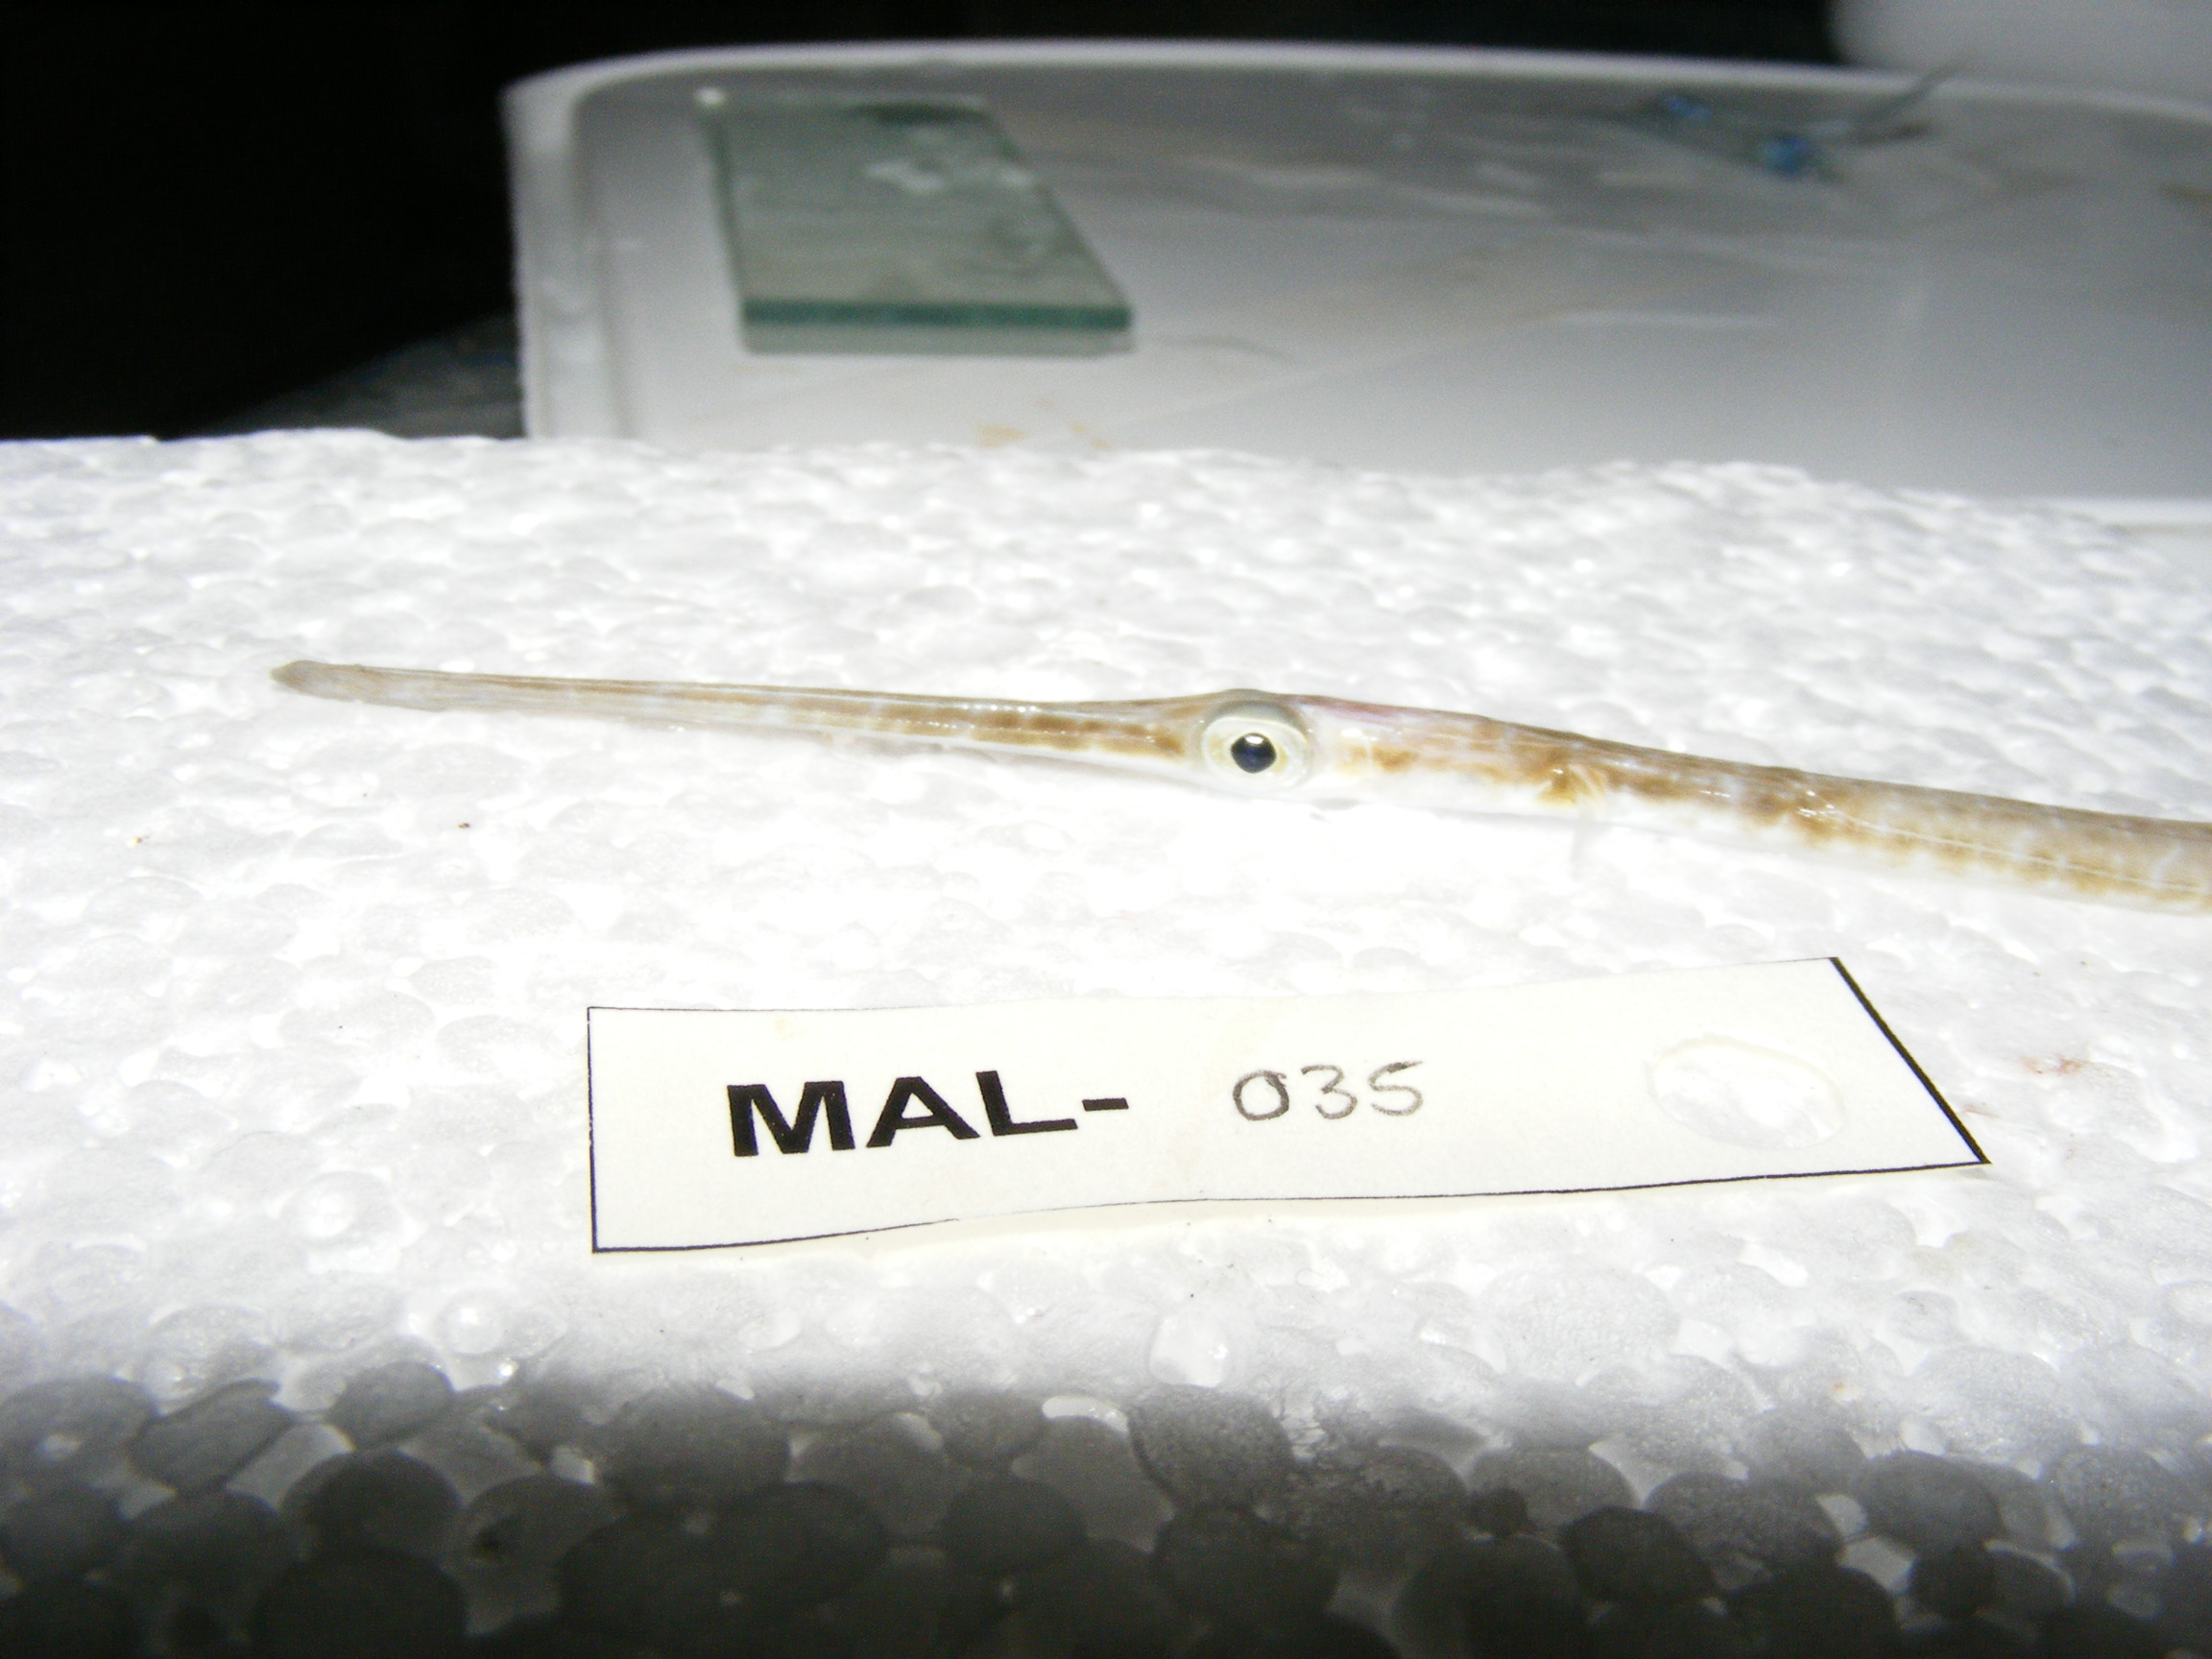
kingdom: Animalia
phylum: Chordata
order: Syngnathiformes
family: Fistulariidae
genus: Fistularia
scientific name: Fistularia commersonii
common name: Bluespotted cornetfish
